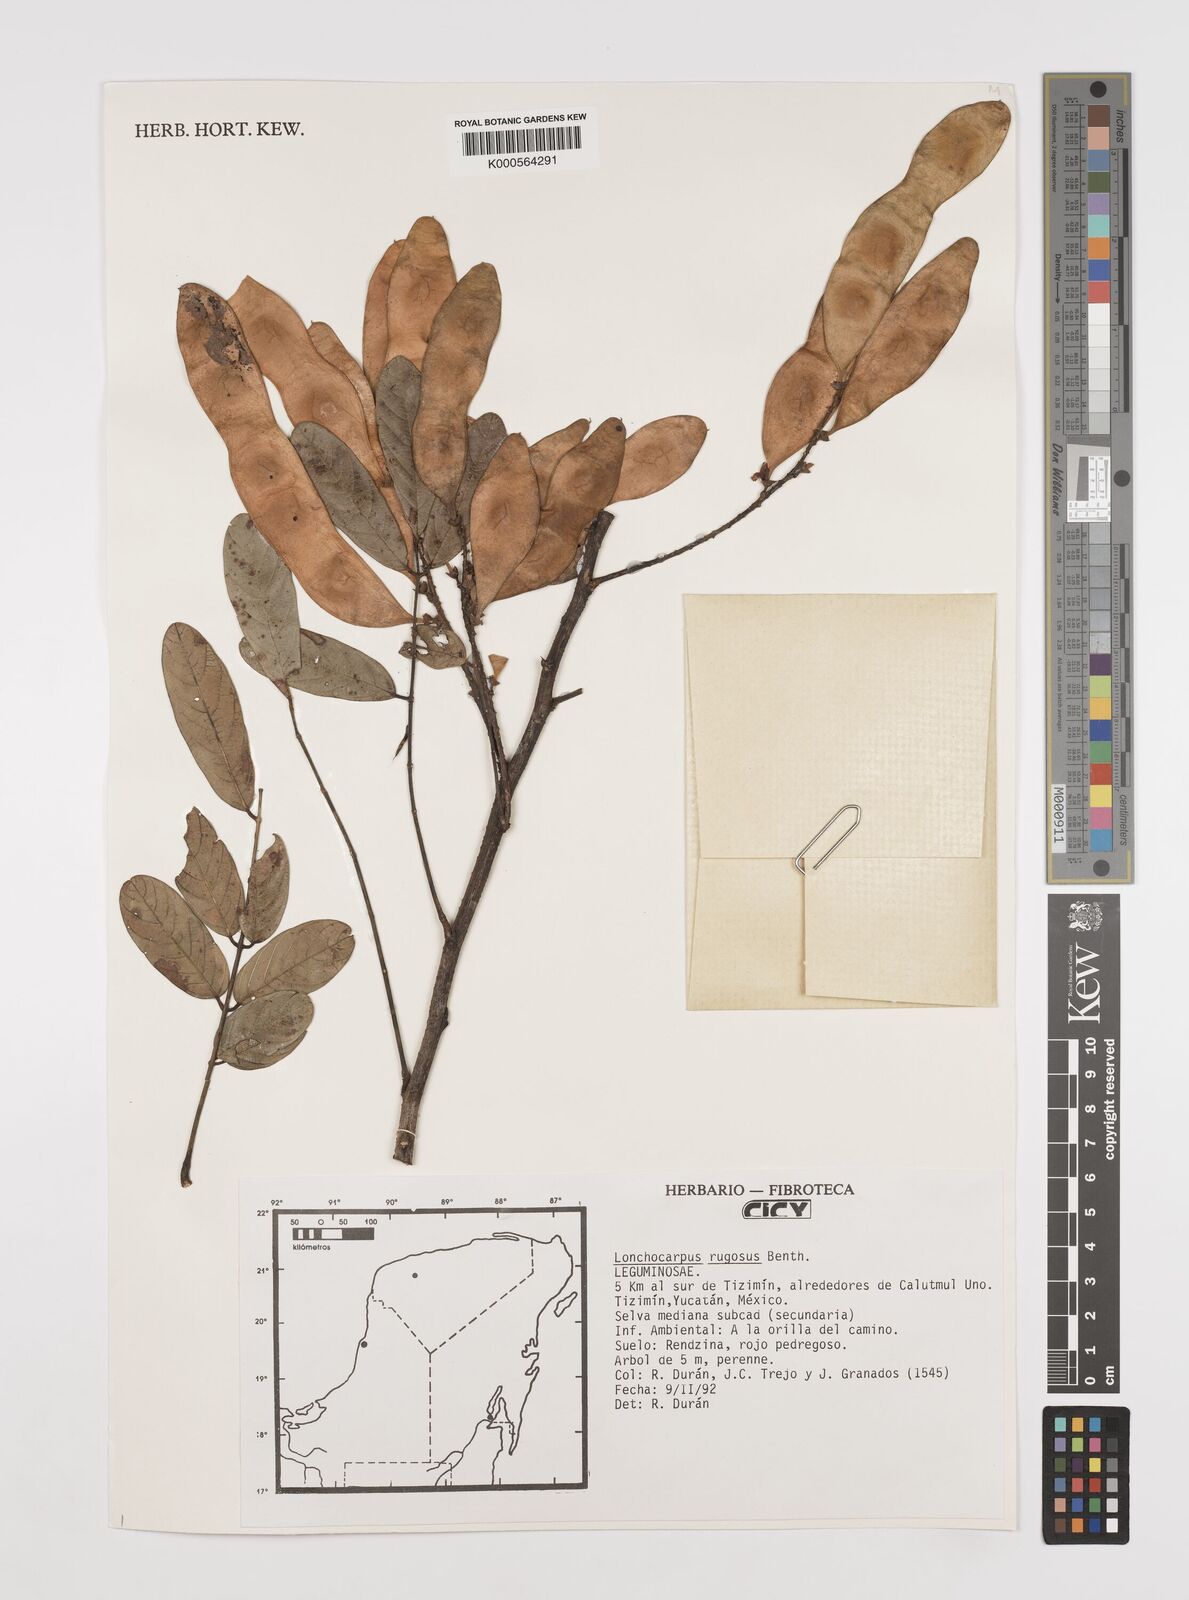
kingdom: Plantae
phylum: Tracheophyta
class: Magnoliopsida
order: Fabales
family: Fabaceae
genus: Lonchocarpus
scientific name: Lonchocarpus rugosus
